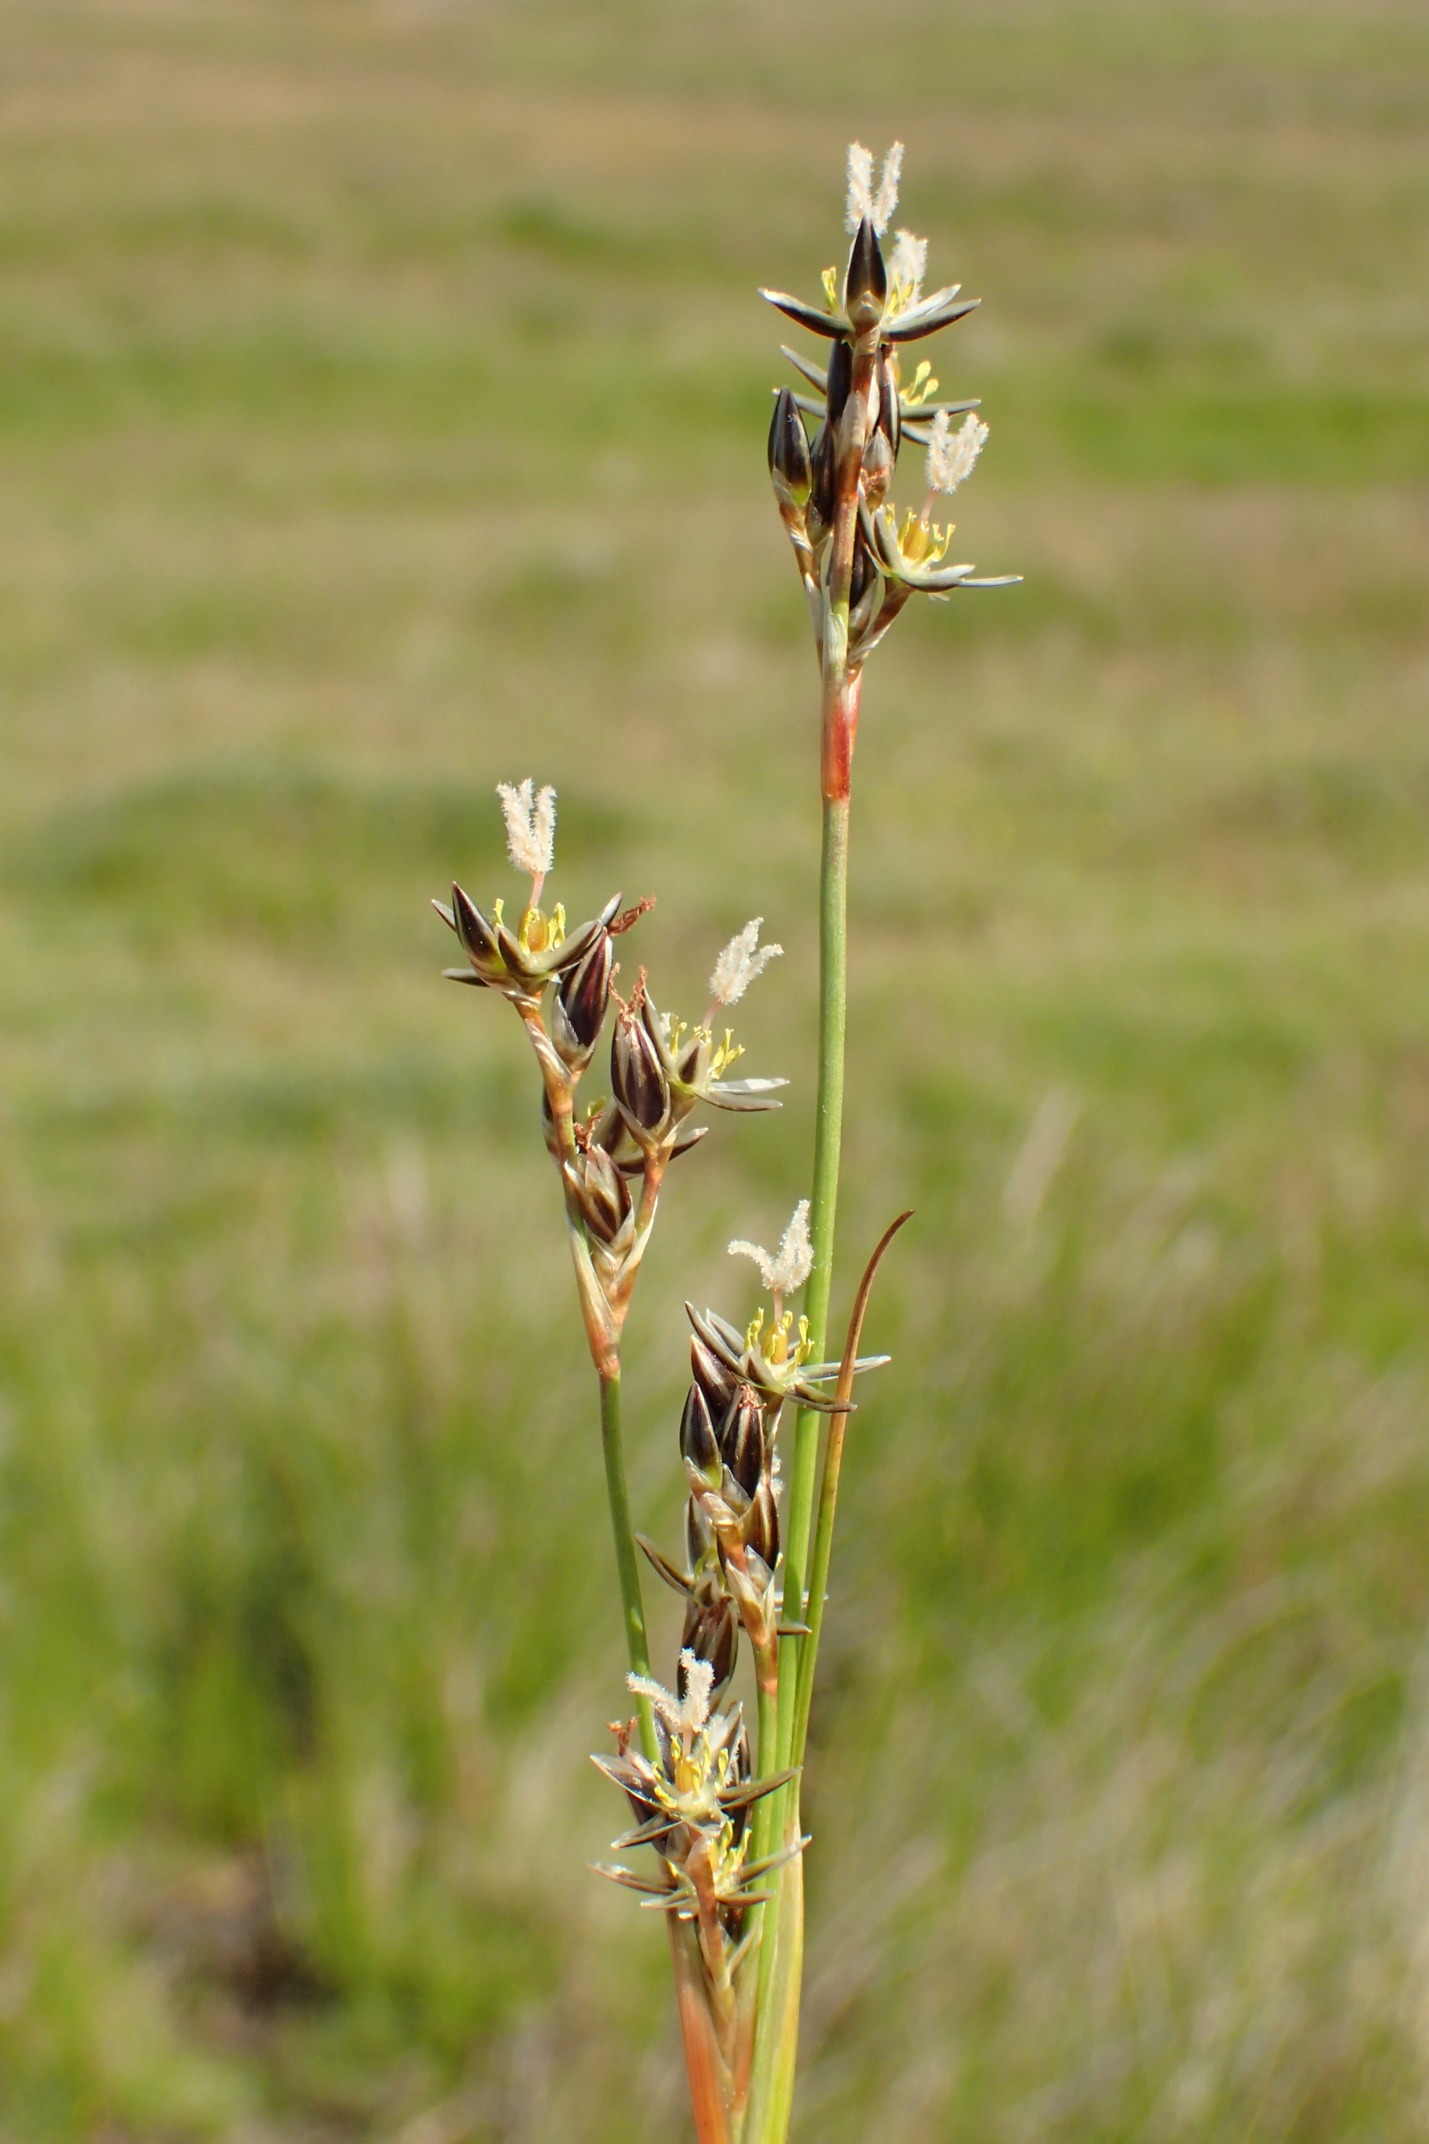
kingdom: Plantae
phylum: Tracheophyta
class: Liliopsida
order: Poales
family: Juncaceae
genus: Juncus
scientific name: Juncus squarrosus
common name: Børste-siv
